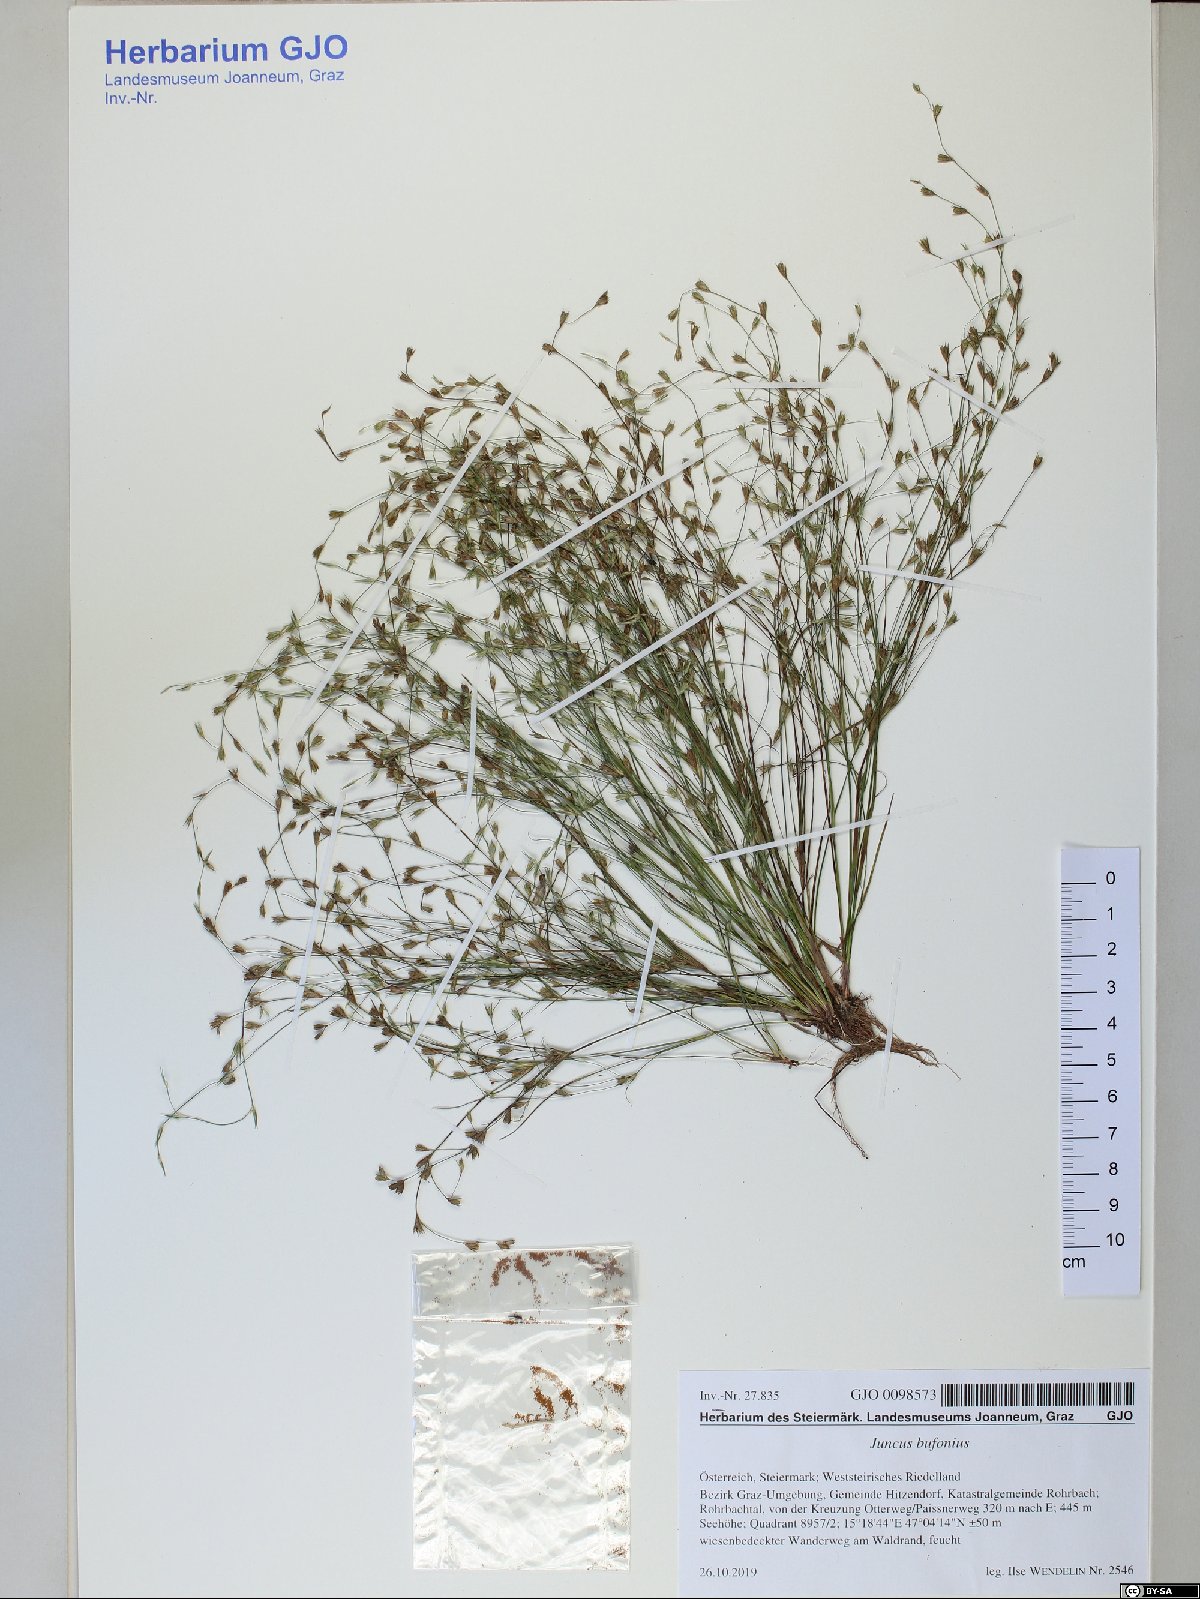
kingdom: Plantae
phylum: Tracheophyta
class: Liliopsida
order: Poales
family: Juncaceae
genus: Juncus
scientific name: Juncus bufonius
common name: Toad rush
